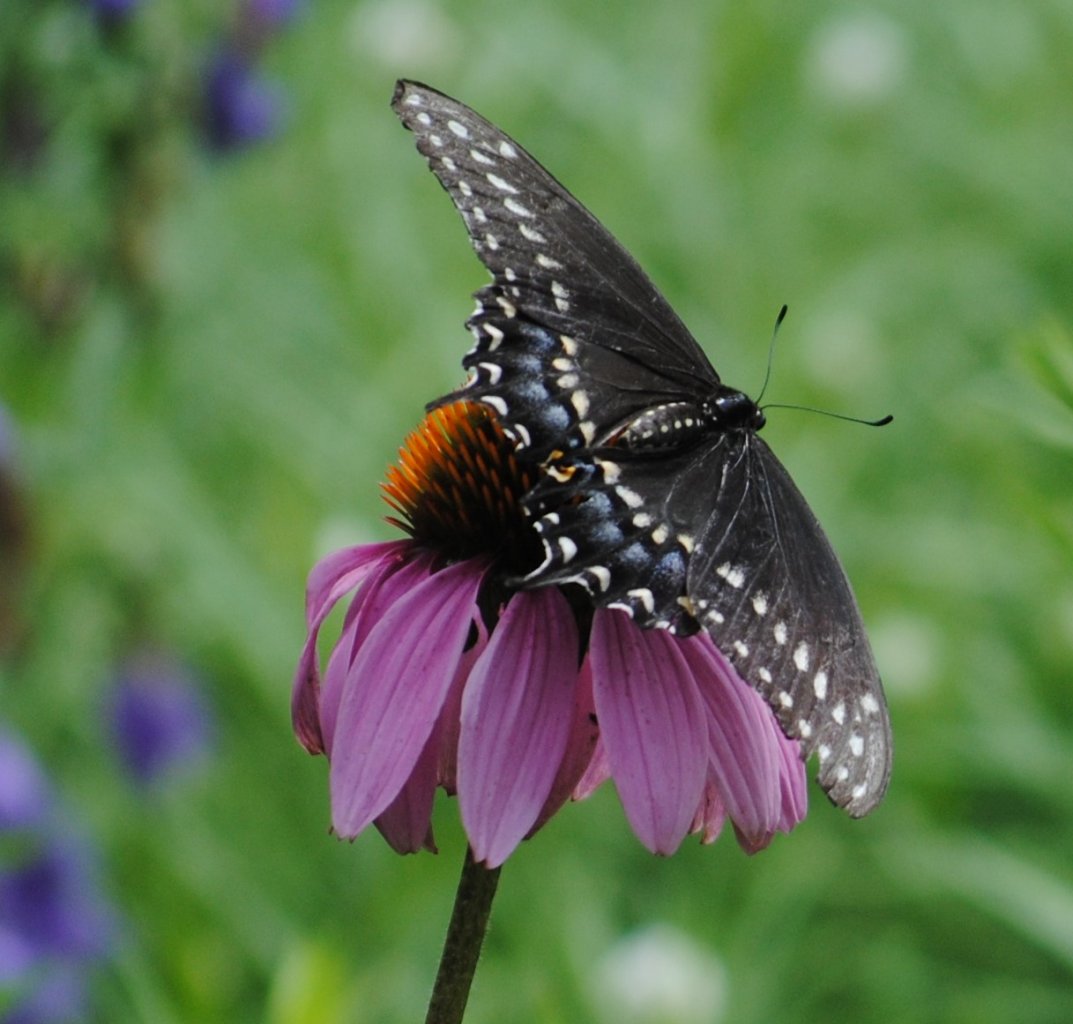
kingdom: Animalia
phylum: Arthropoda
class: Insecta
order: Lepidoptera
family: Papilionidae
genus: Papilio
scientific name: Papilio polyxenes
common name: Black Swallowtail
